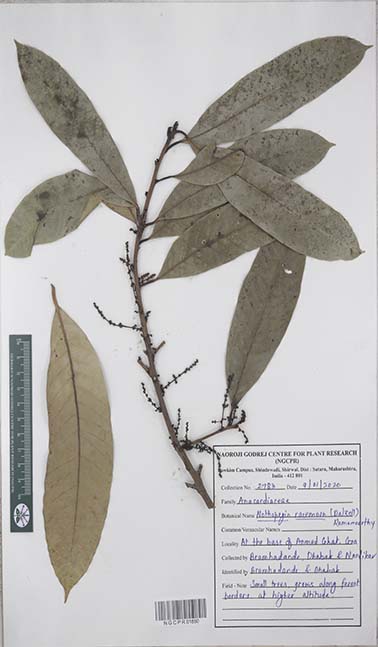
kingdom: Plantae
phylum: Tracheophyta
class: Magnoliopsida
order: Sapindales
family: Anacardiaceae
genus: Nothopegia
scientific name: Nothopegia castaneifolia
